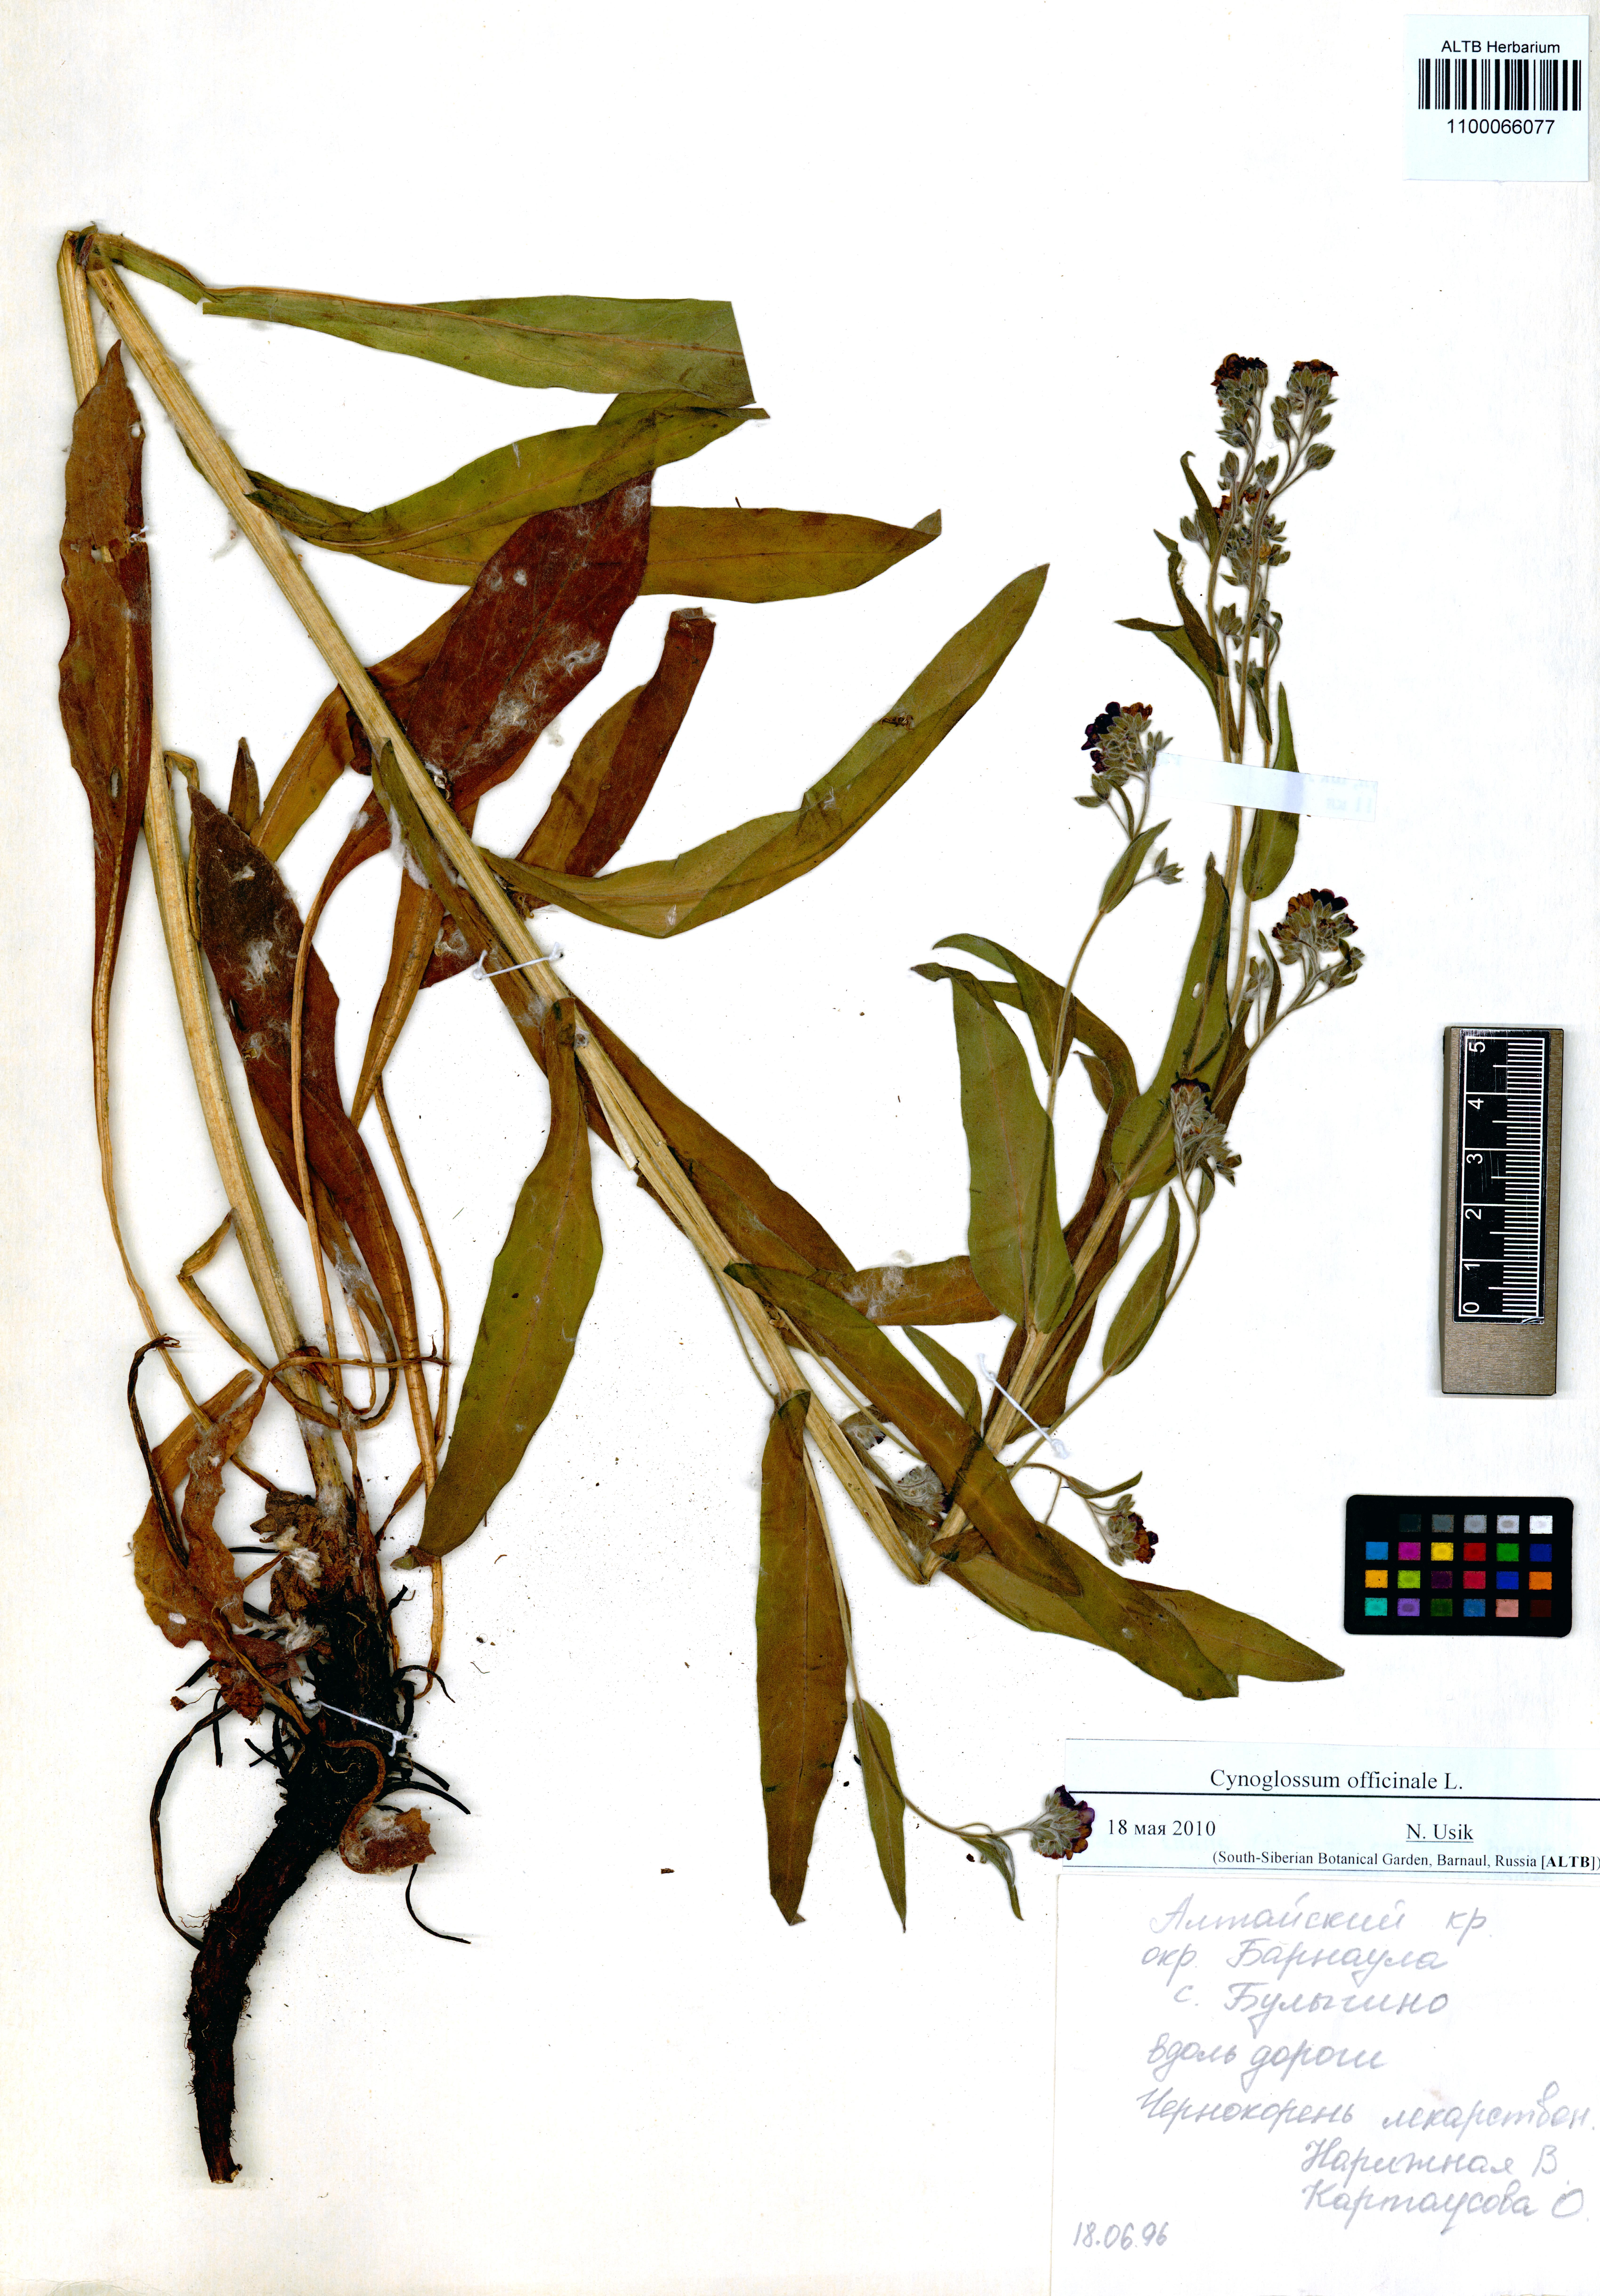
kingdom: Plantae
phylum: Tracheophyta
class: Magnoliopsida
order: Boraginales
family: Boraginaceae
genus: Cynoglossum
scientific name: Cynoglossum officinale
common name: Hound's-tongue
